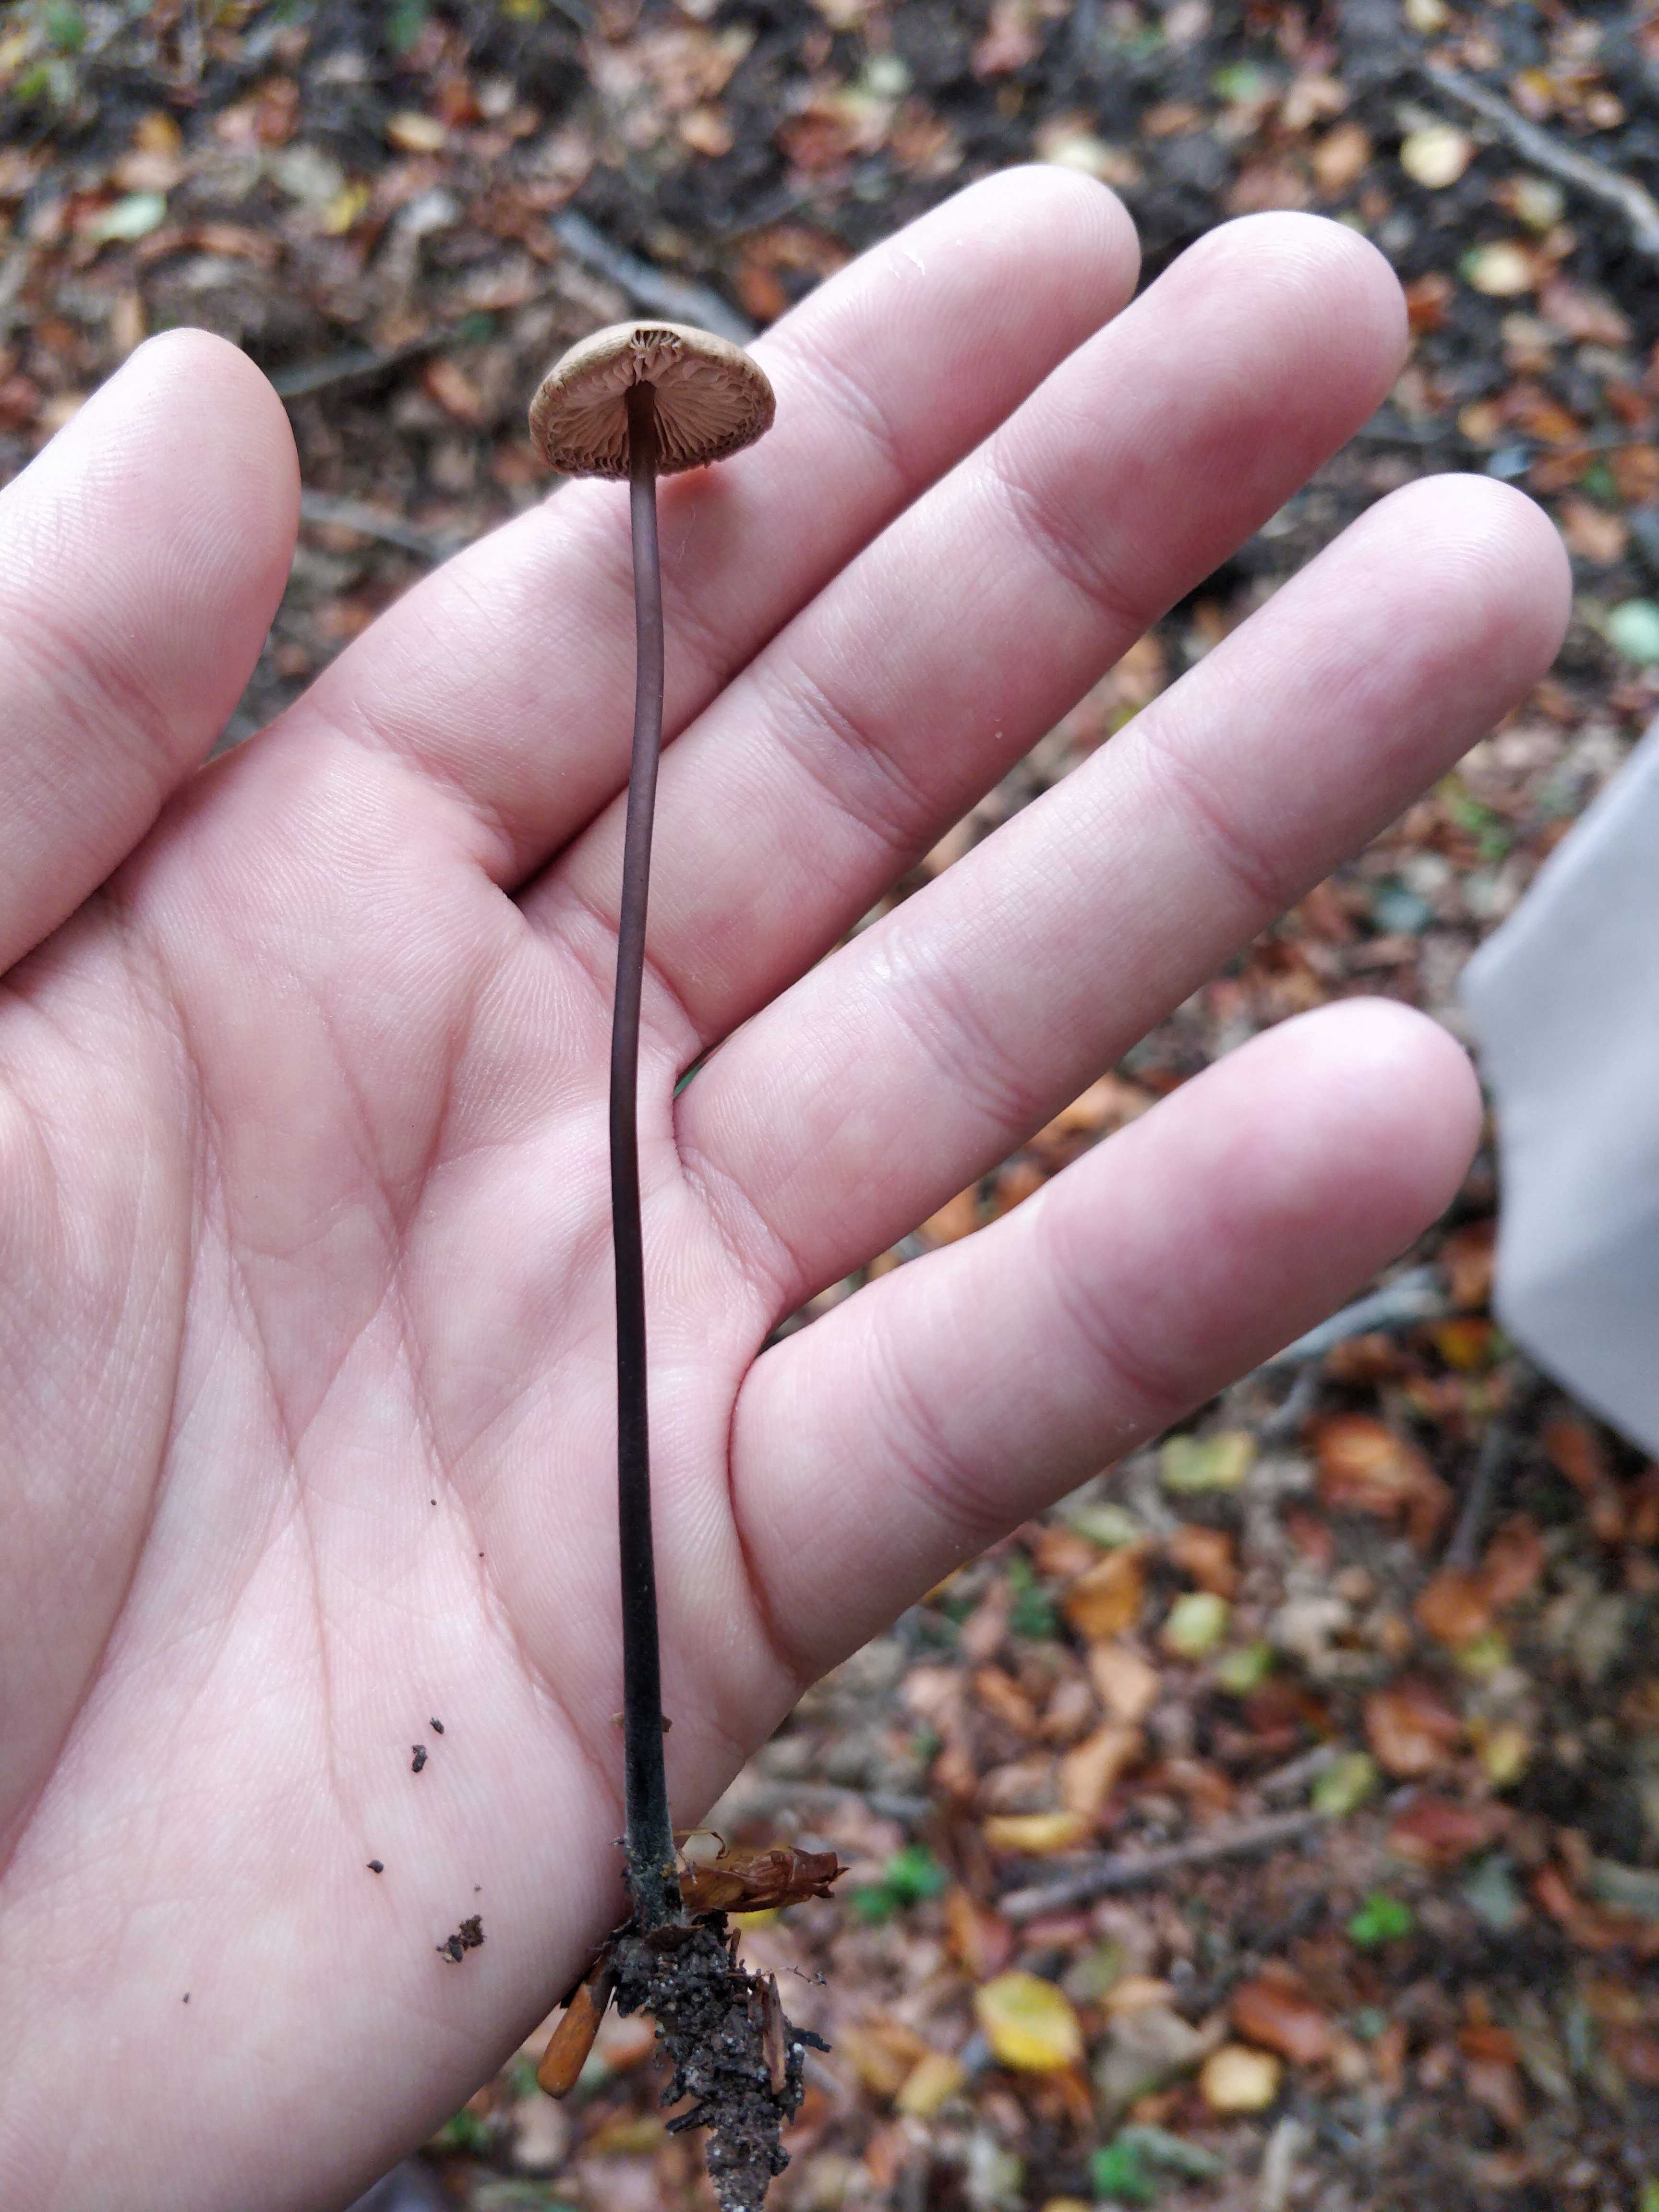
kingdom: Fungi
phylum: Basidiomycota
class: Agaricomycetes
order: Agaricales
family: Omphalotaceae
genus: Mycetinis
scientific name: Mycetinis alliaceus
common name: stor løghat
